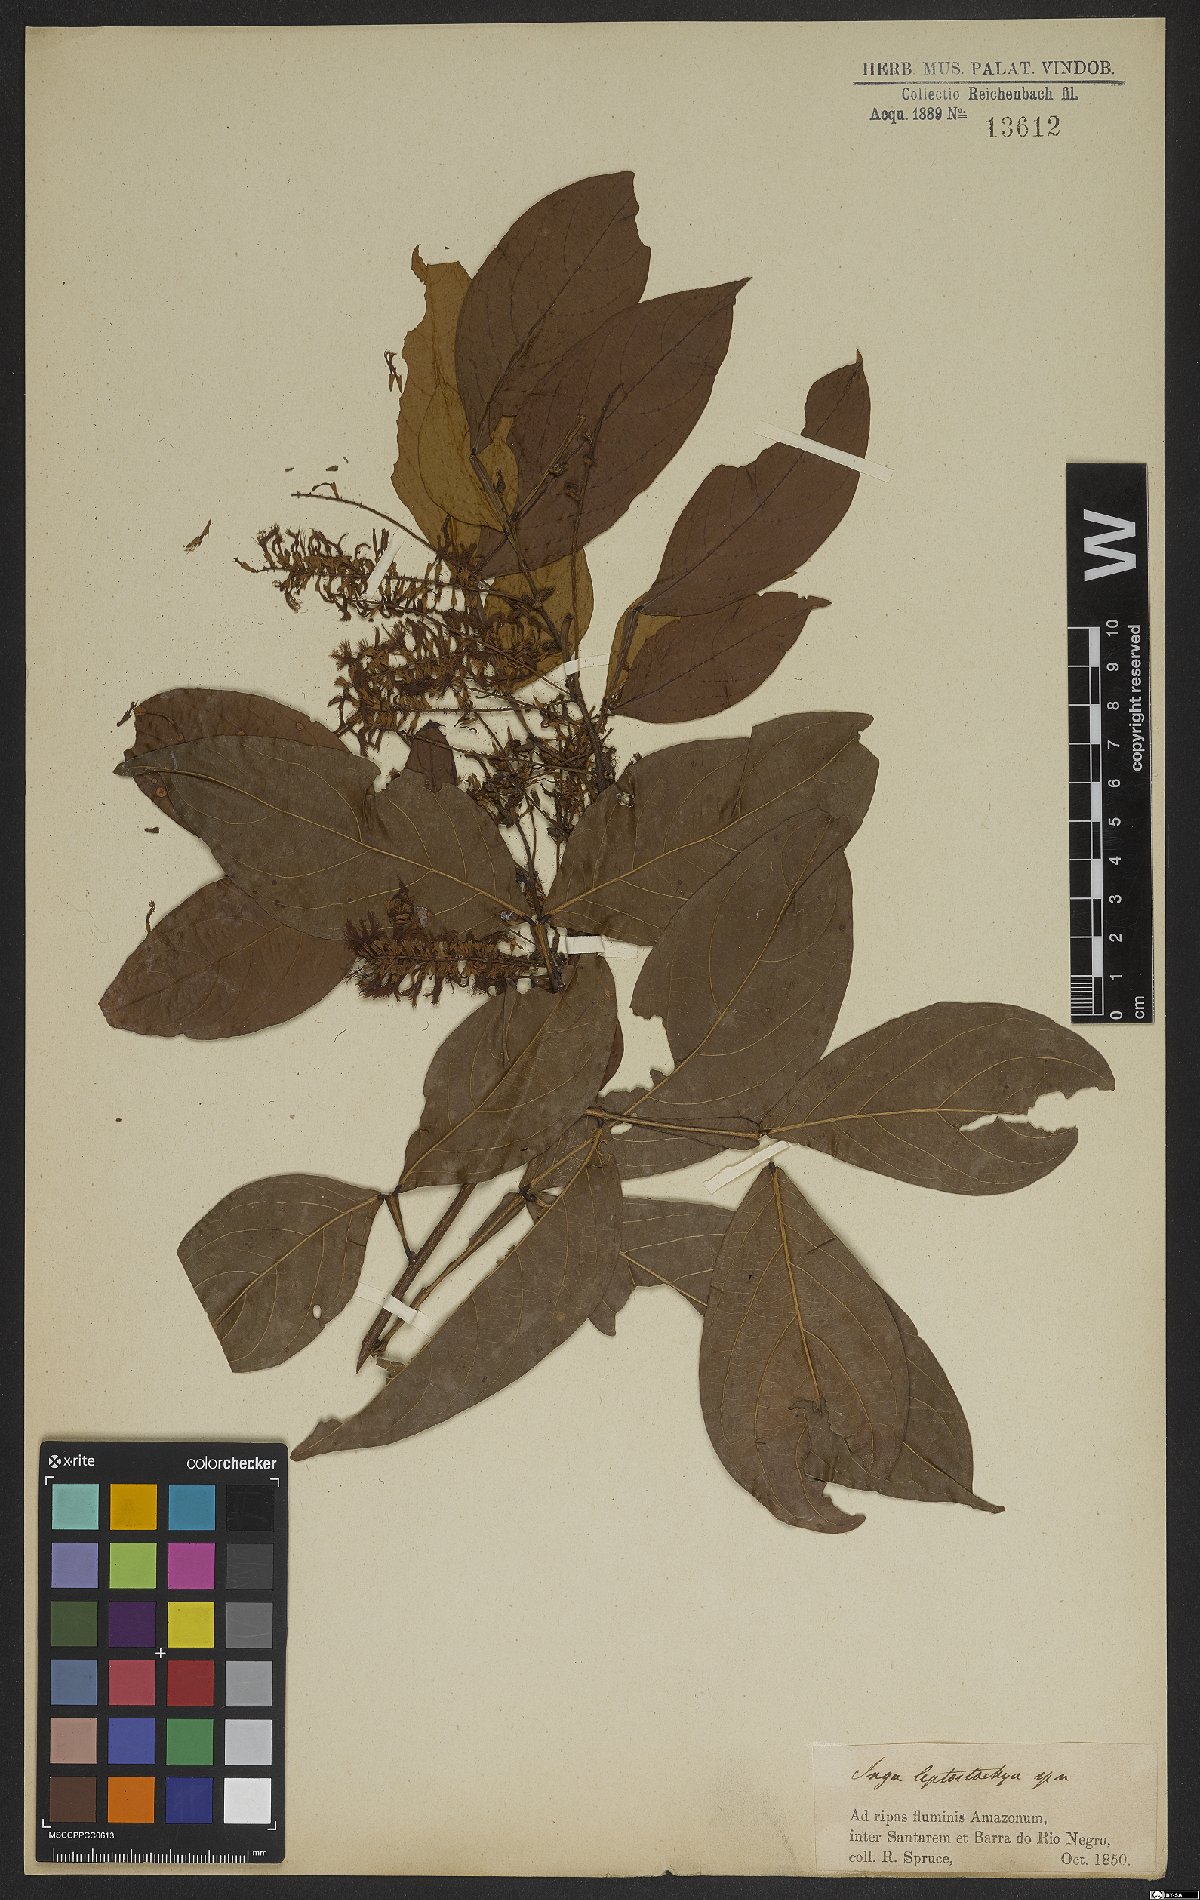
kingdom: Plantae
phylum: Tracheophyta
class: Magnoliopsida
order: Fabales
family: Fabaceae
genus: Inga
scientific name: Inga marginata
